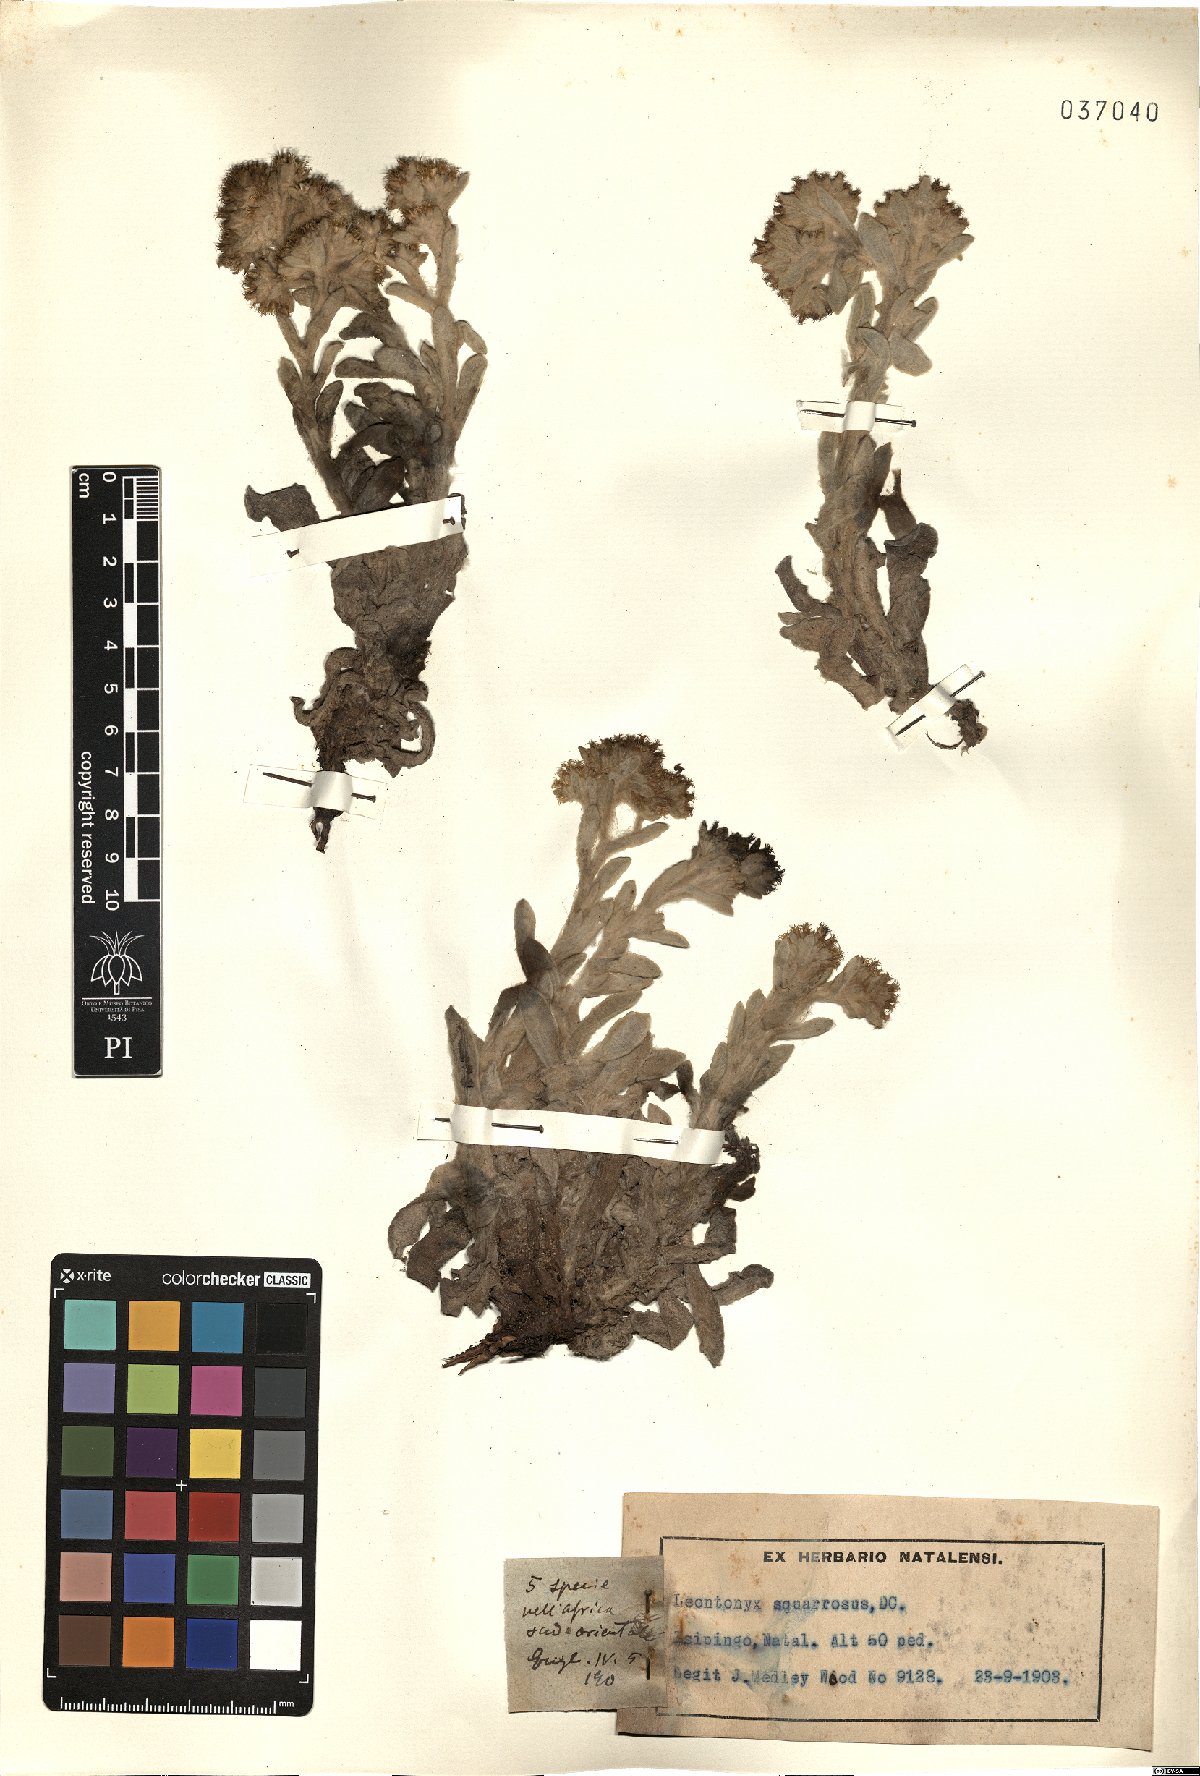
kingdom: Plantae
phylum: Tracheophyta
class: Magnoliopsida
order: Asterales
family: Asteraceae
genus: Helichrysum
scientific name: Helichrysum spiralepis
